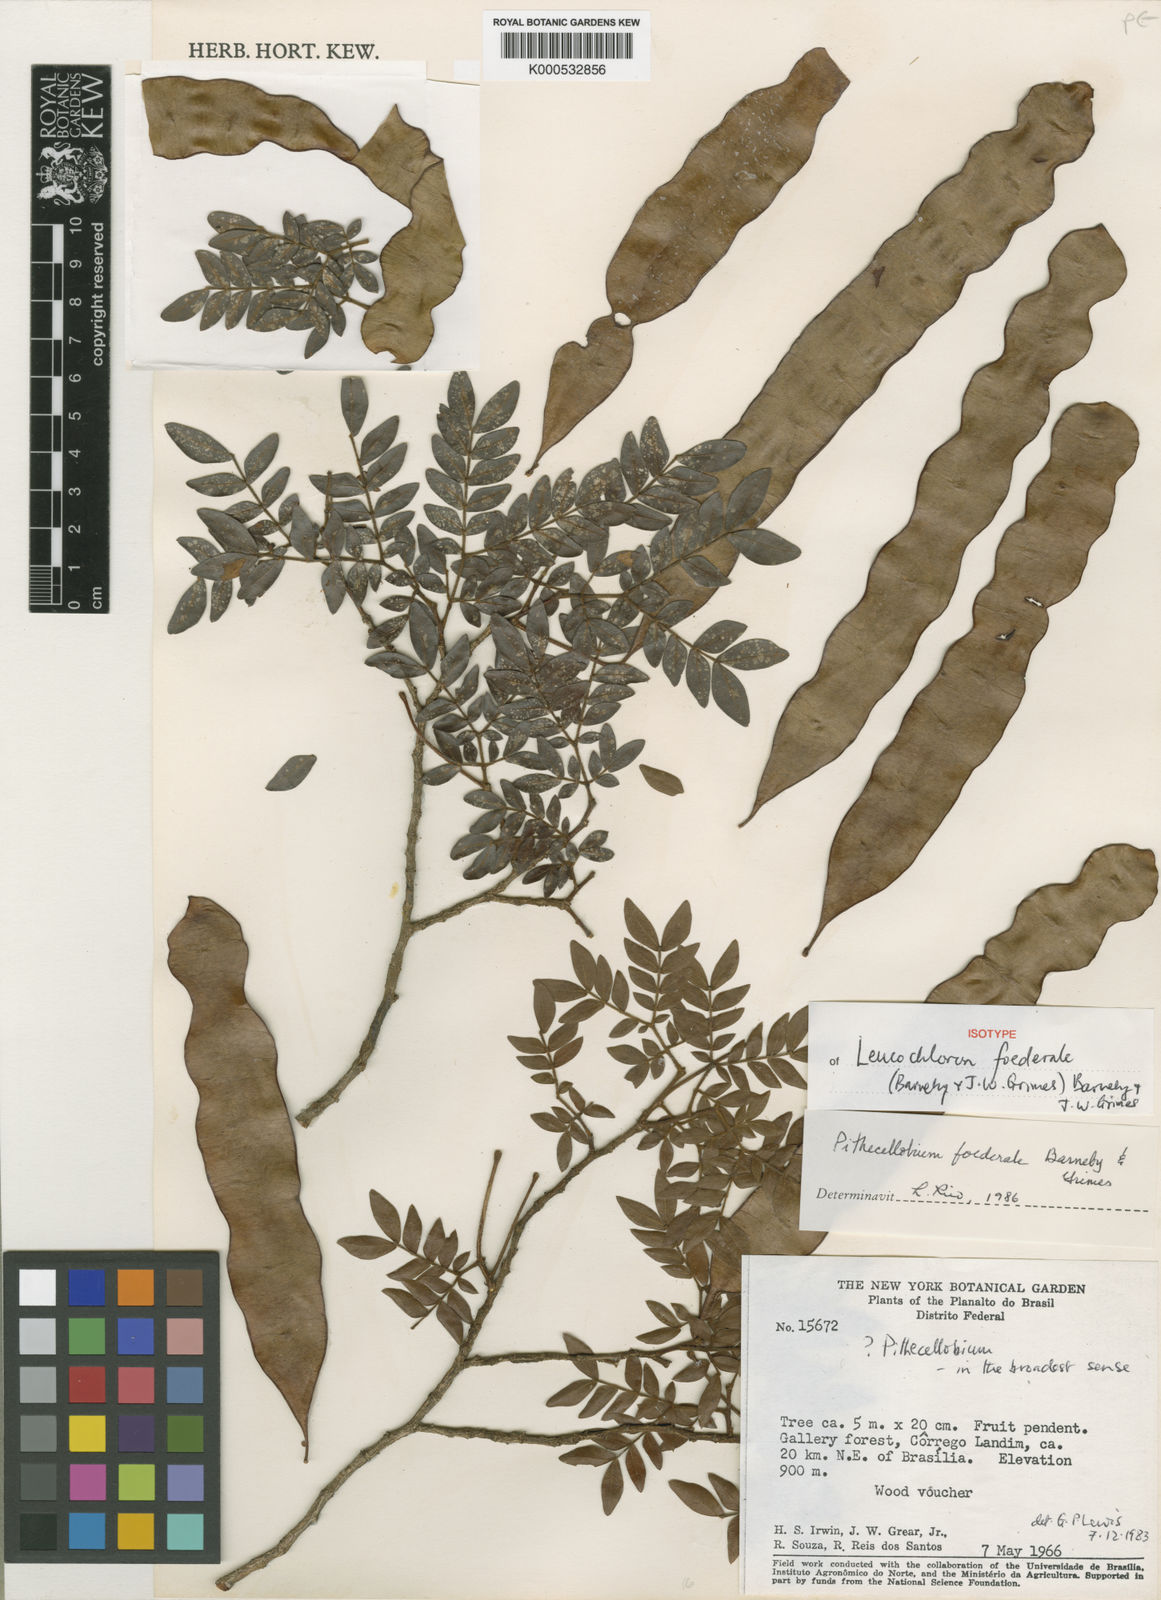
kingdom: Plantae
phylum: Tracheophyta
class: Magnoliopsida
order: Fabales
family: Fabaceae
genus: Leucochloron
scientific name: Leucochloron foederale
